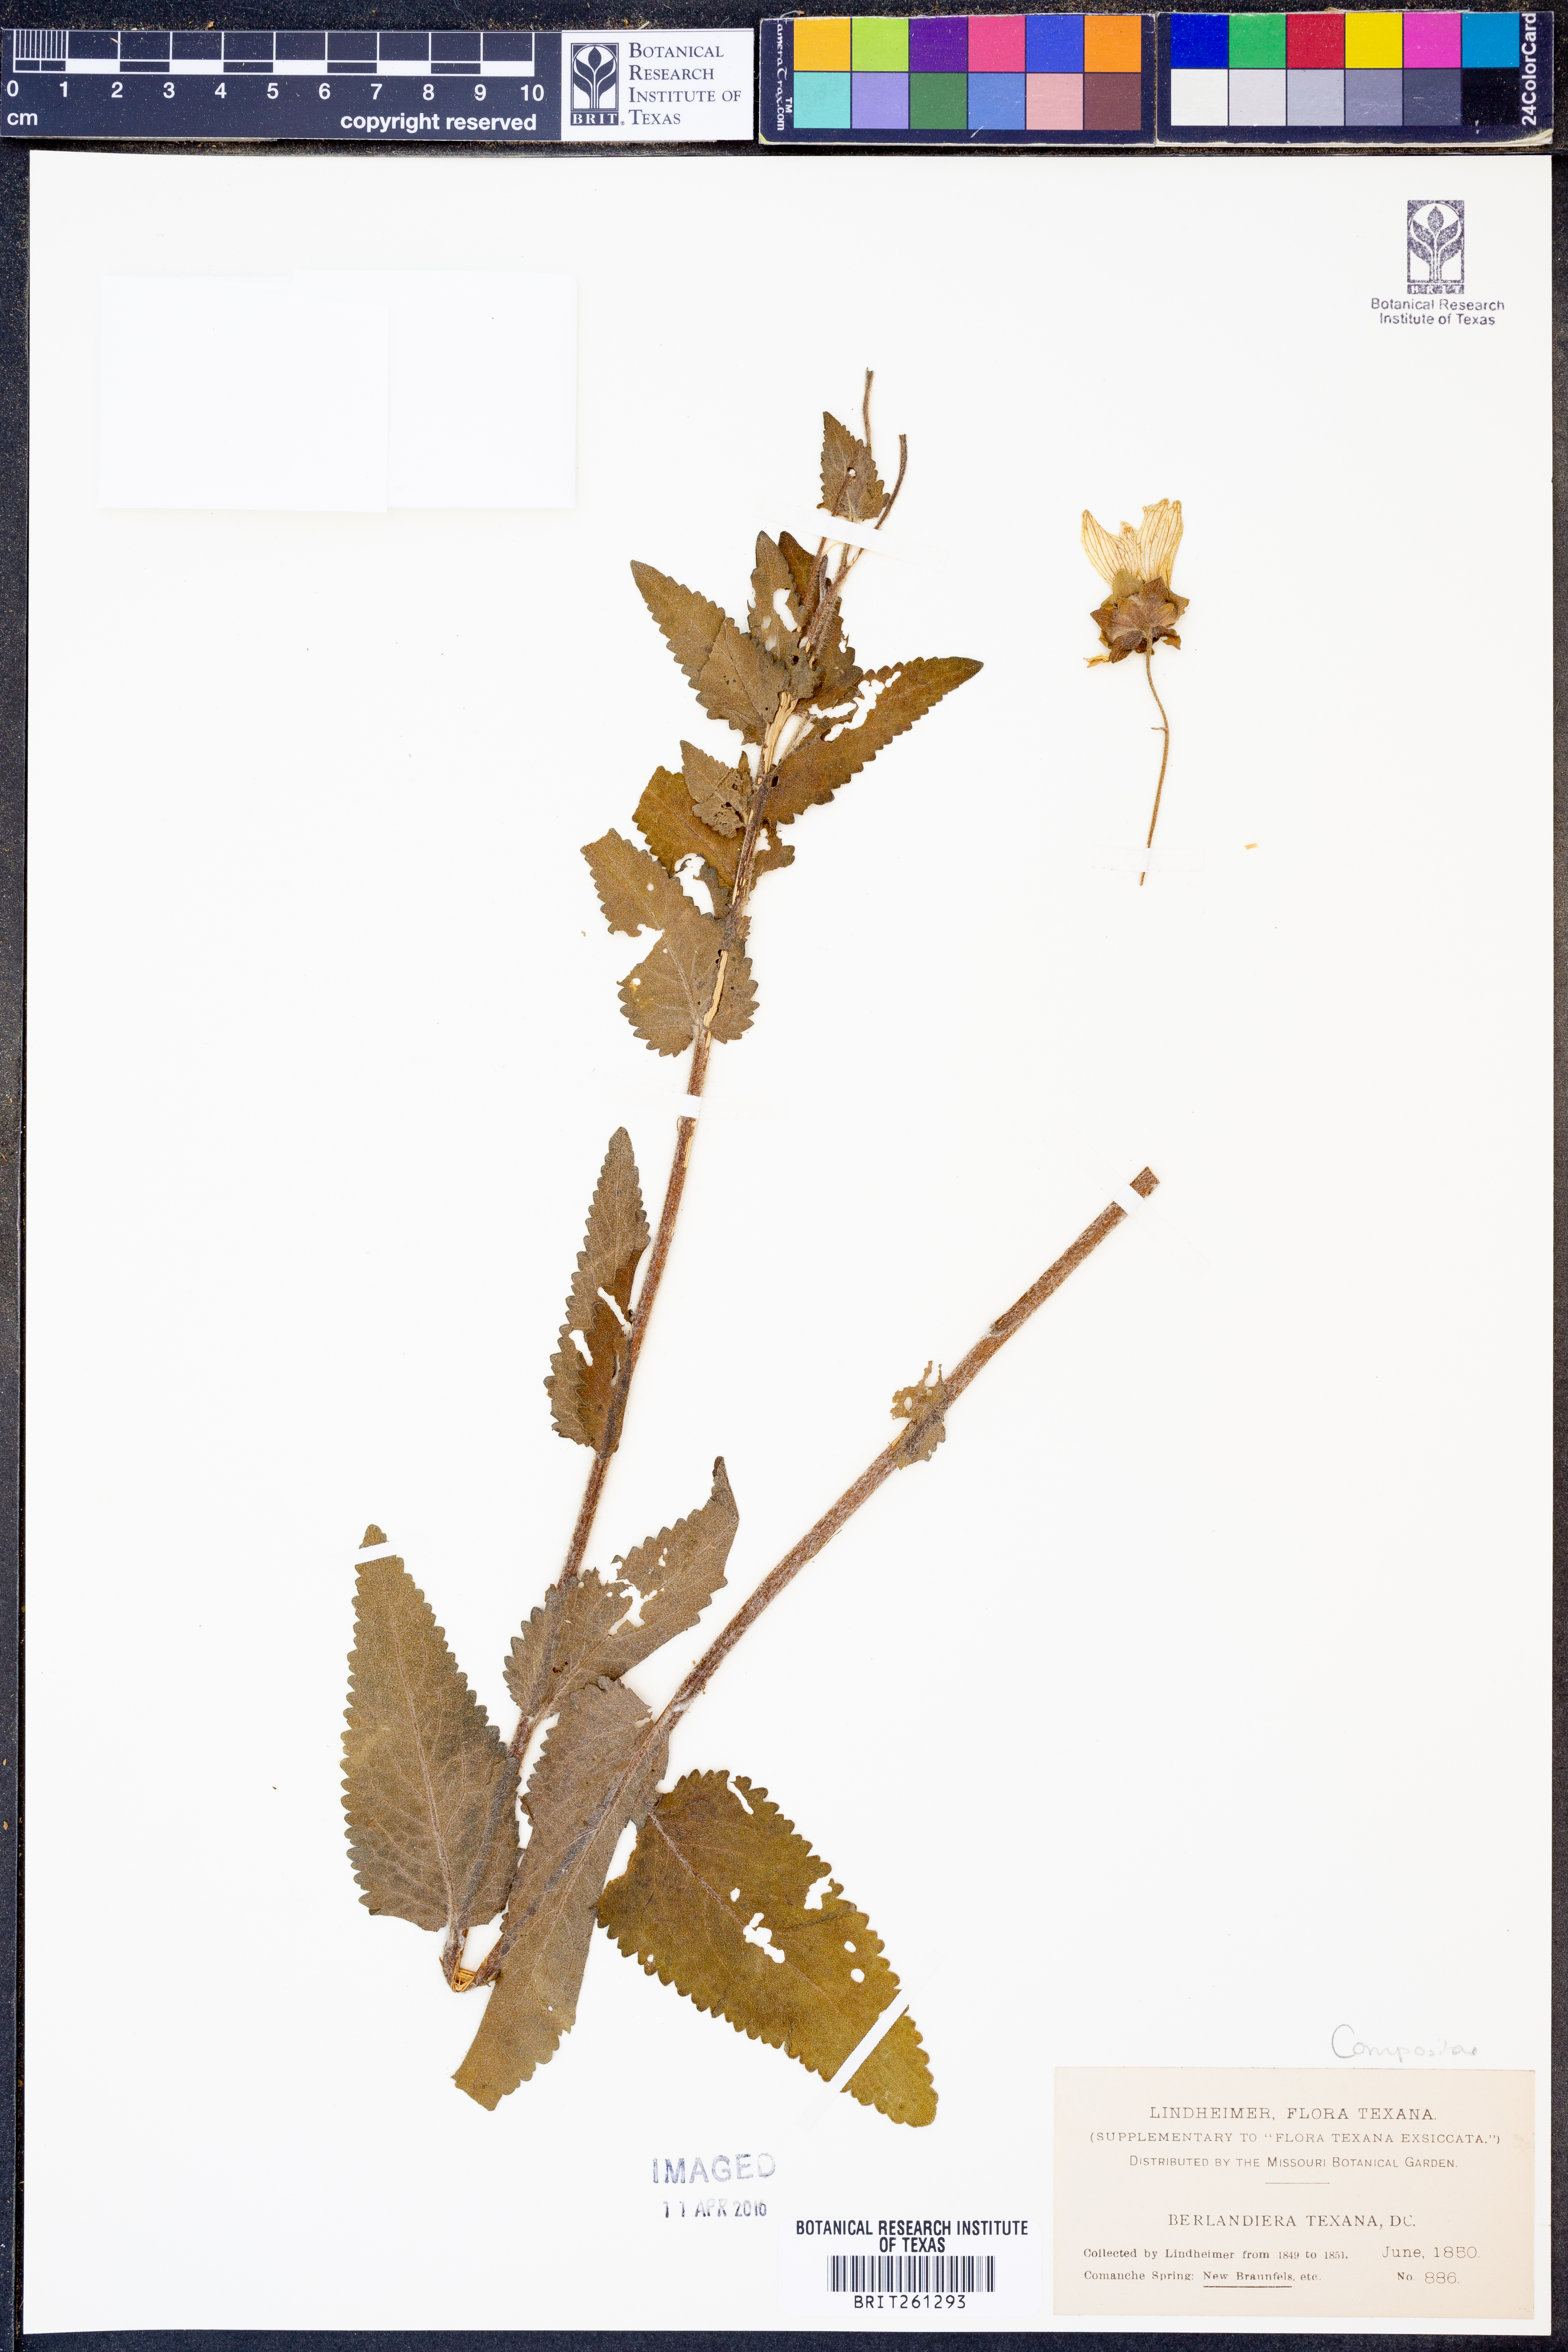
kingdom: Plantae
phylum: Tracheophyta
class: Magnoliopsida
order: Asterales
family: Asteraceae
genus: Berlandiera
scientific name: Berlandiera texana
